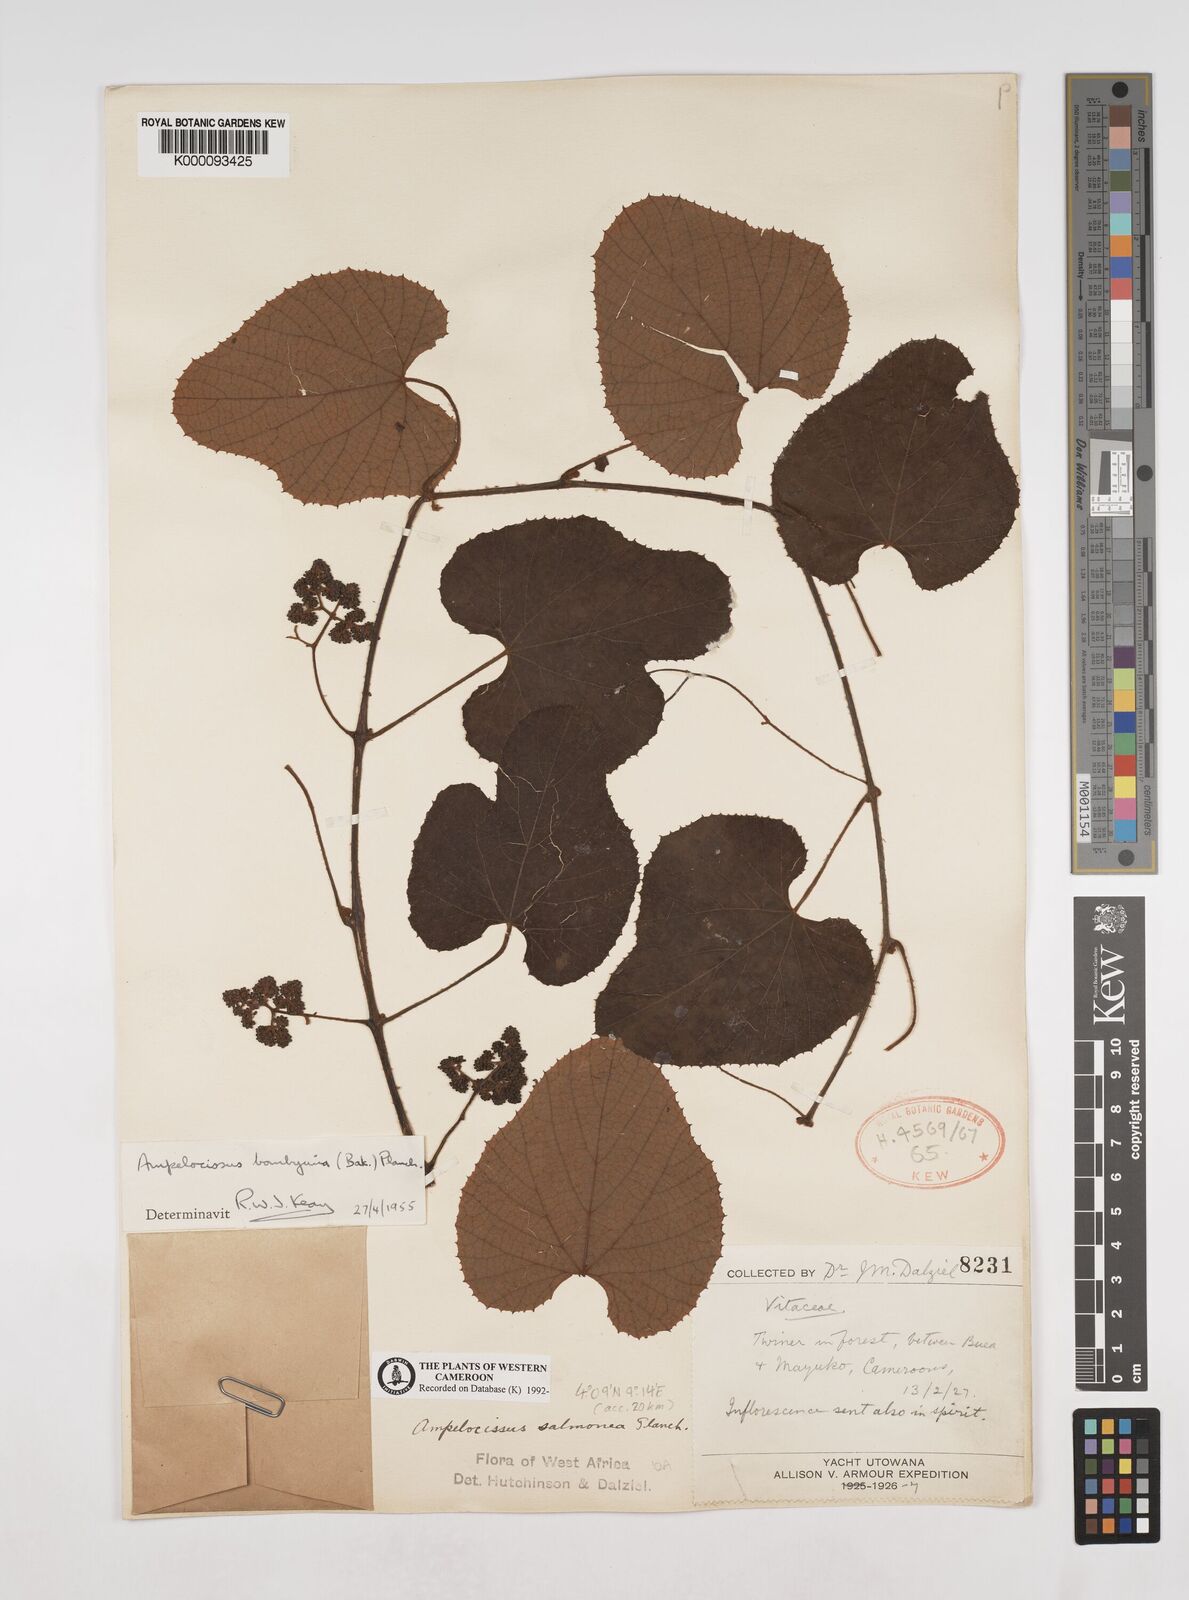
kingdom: Plantae
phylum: Tracheophyta
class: Magnoliopsida
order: Vitales
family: Vitaceae
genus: Ampelocissus
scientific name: Ampelocissus bombycina
